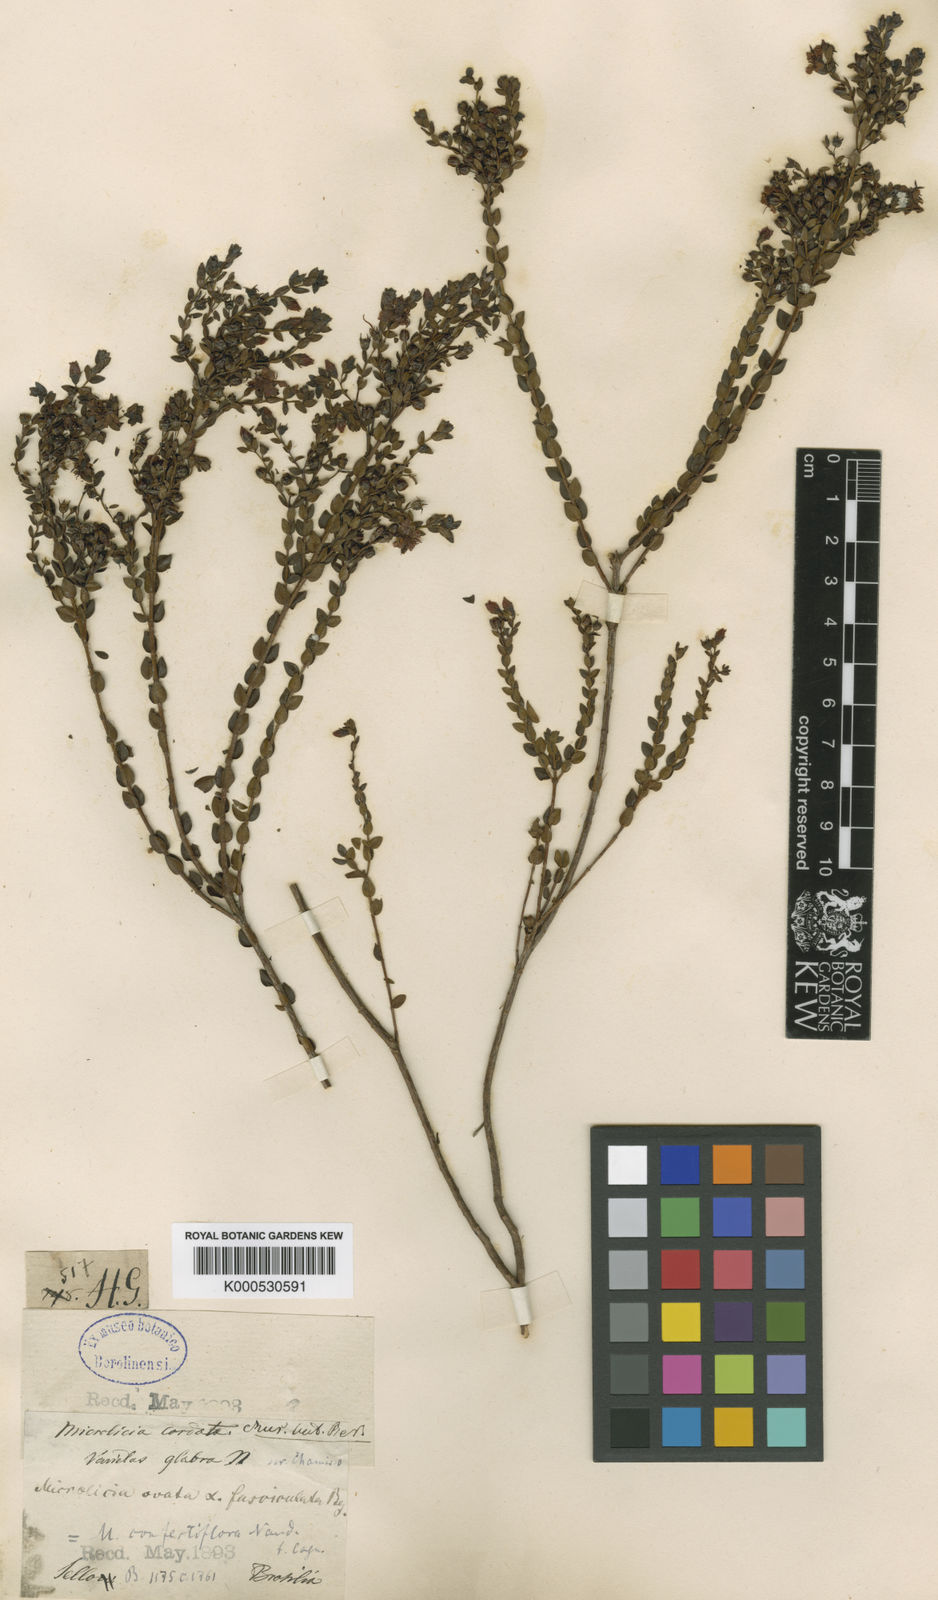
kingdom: Plantae
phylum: Tracheophyta
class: Magnoliopsida
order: Myrtales
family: Melastomataceae
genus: Microlicia
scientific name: Microlicia
